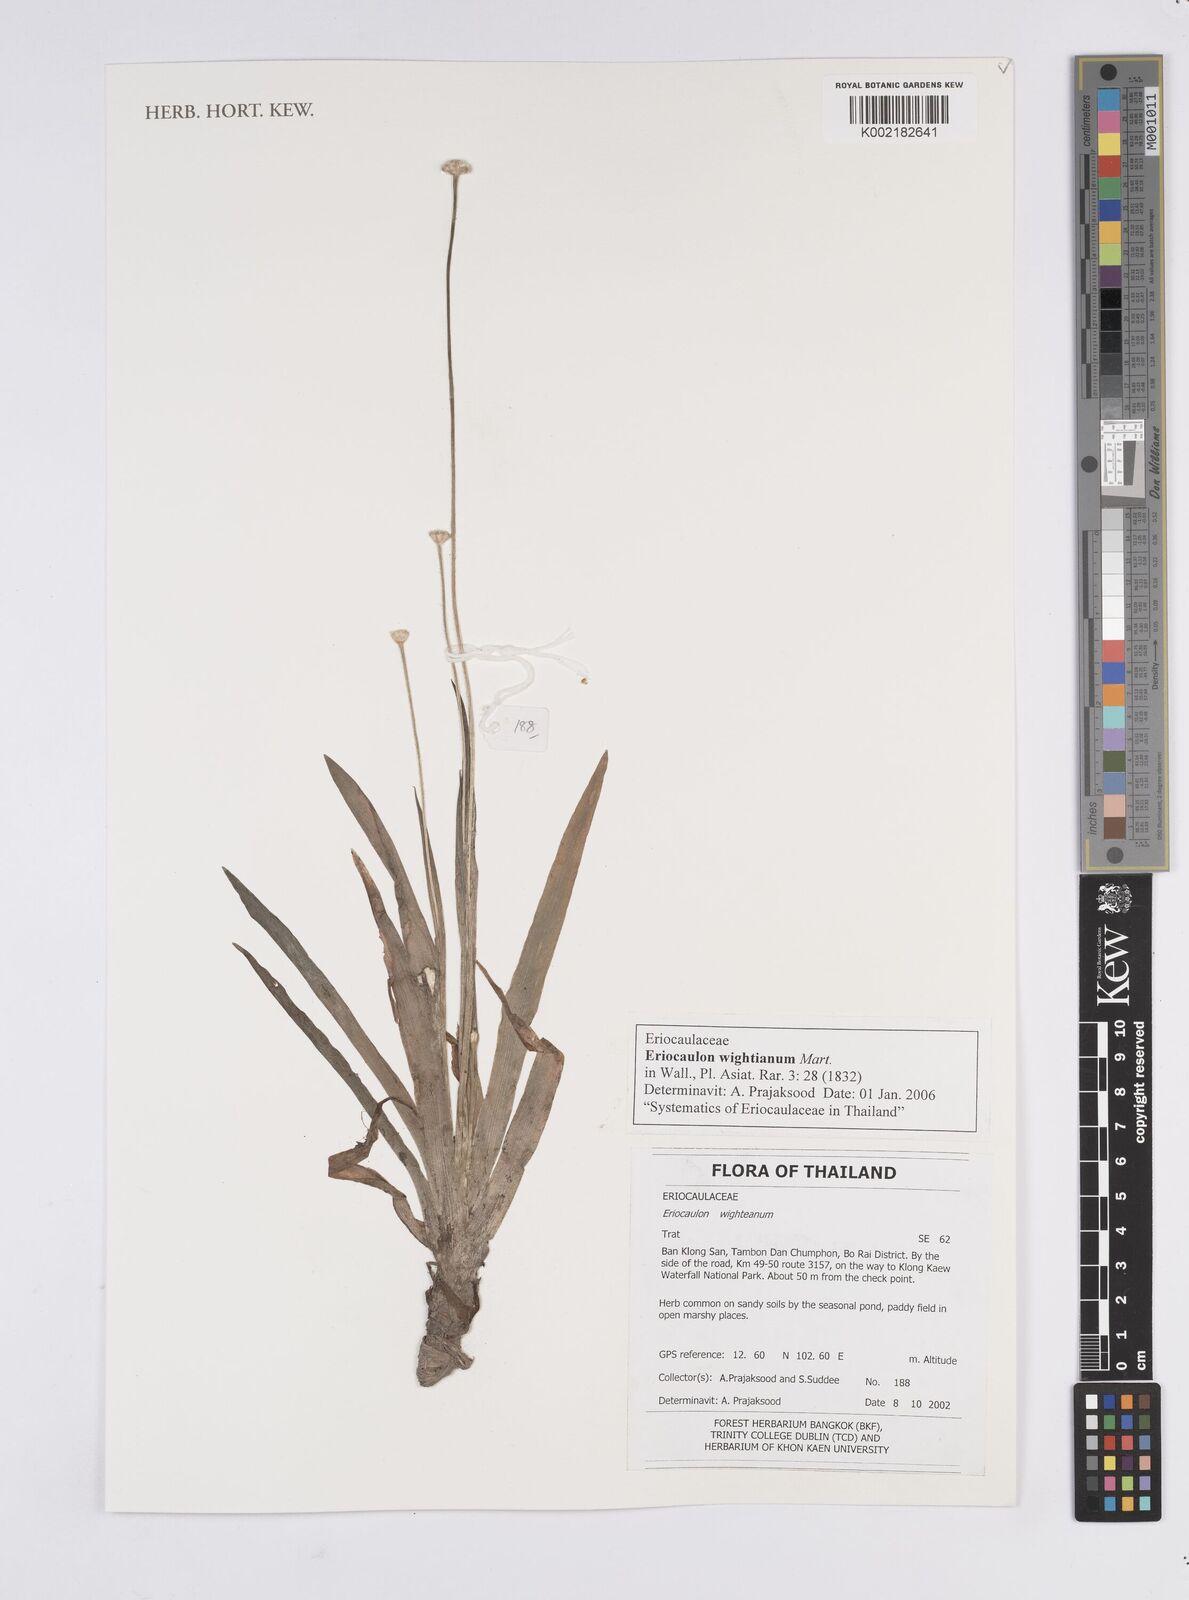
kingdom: Plantae
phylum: Tracheophyta
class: Liliopsida
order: Poales
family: Eriocaulaceae
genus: Eriocaulon
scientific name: Eriocaulon wightianum
